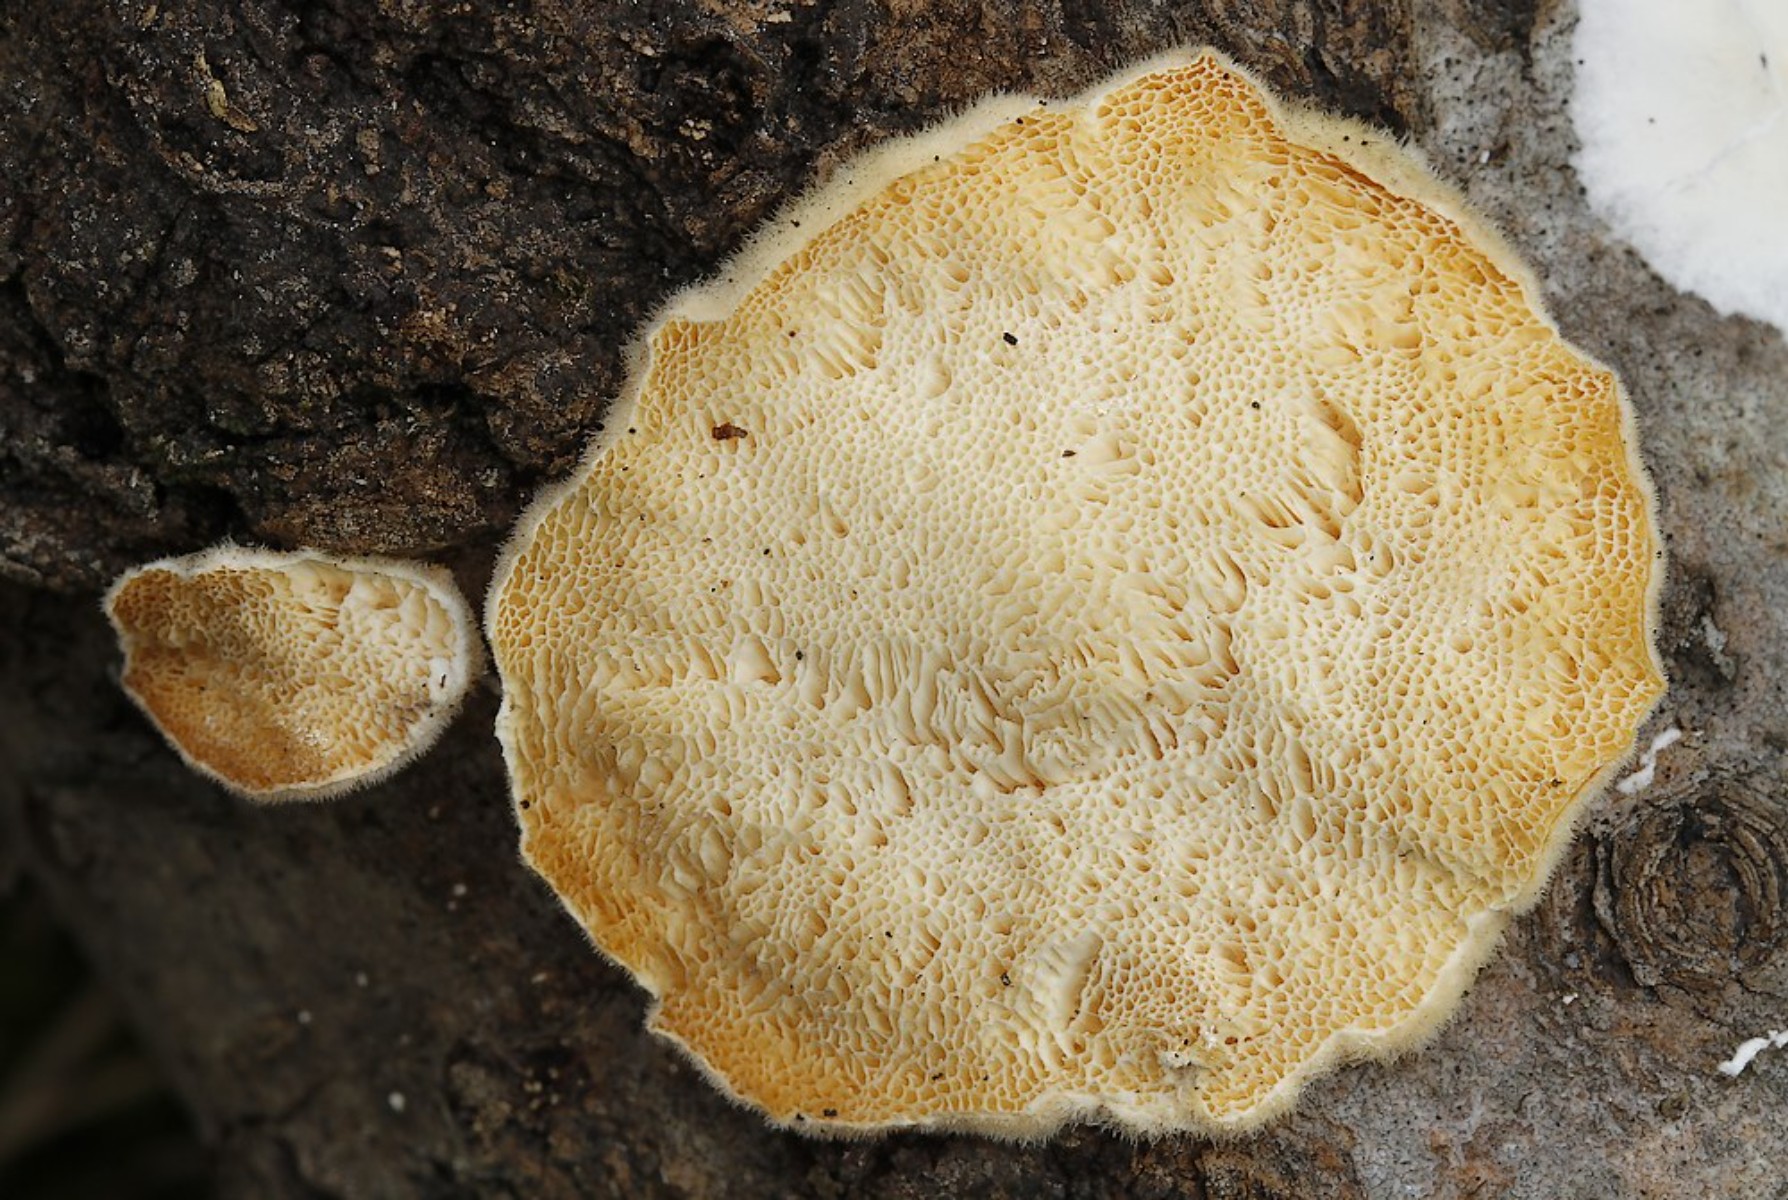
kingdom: Fungi
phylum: Basidiomycota
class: Agaricomycetes
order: Polyporales
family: Polyporaceae
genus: Trametes
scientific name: Trametes hirsuta
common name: håret læderporesvamp
